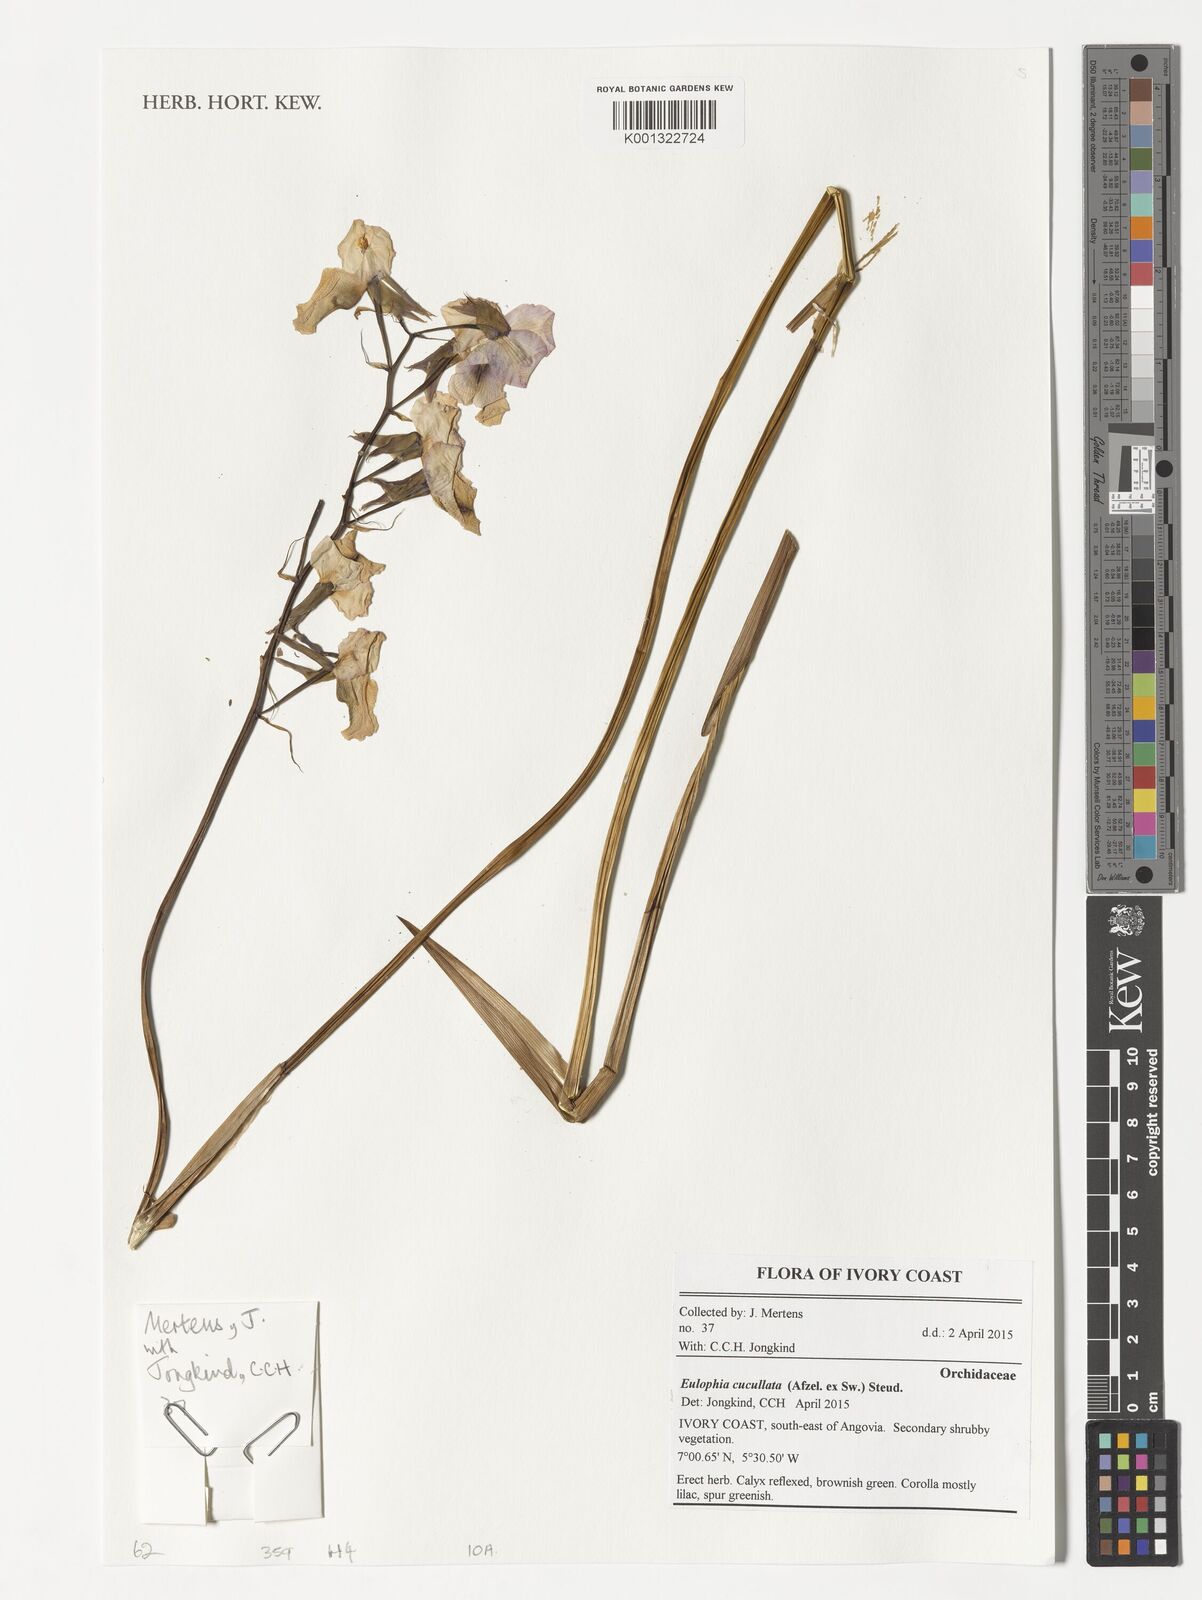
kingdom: Plantae
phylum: Tracheophyta
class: Liliopsida
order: Asparagales
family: Orchidaceae
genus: Eulophia
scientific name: Eulophia cucullata
